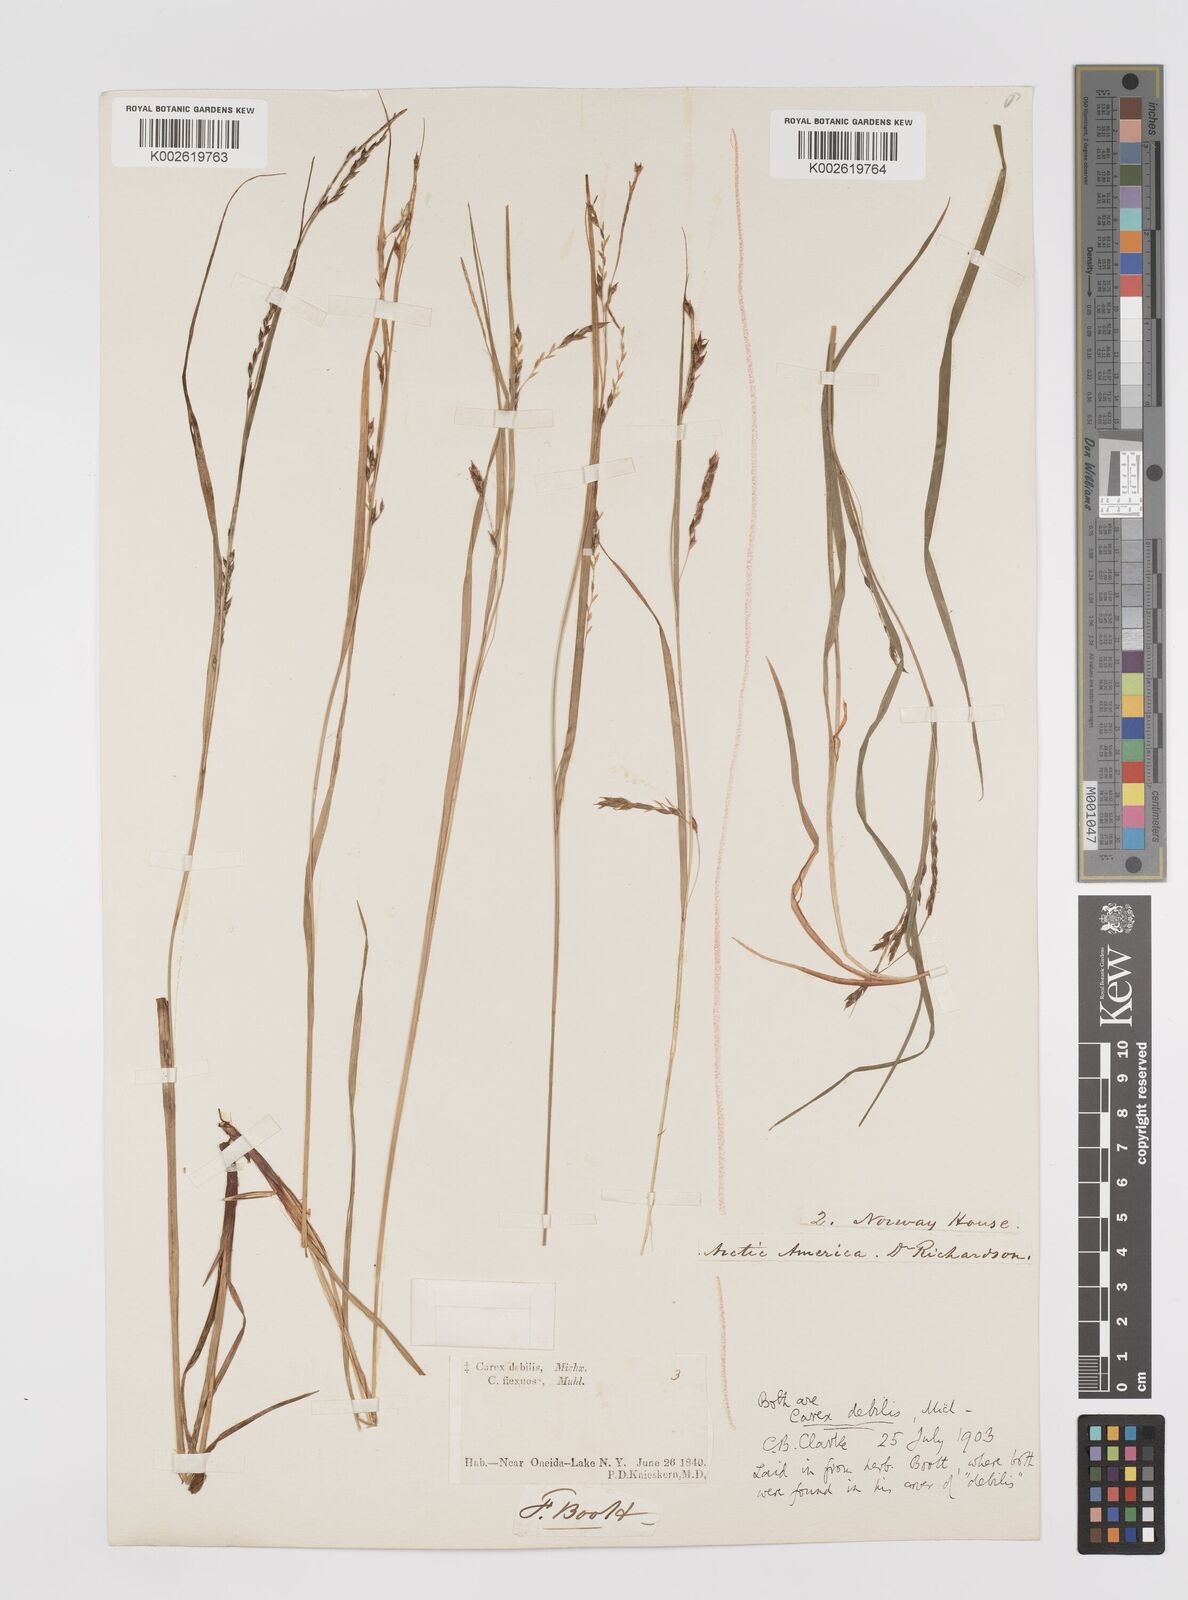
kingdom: Plantae
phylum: Tracheophyta
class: Liliopsida
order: Poales
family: Cyperaceae
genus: Carex
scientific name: Carex debilis
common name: White-edge sedge
